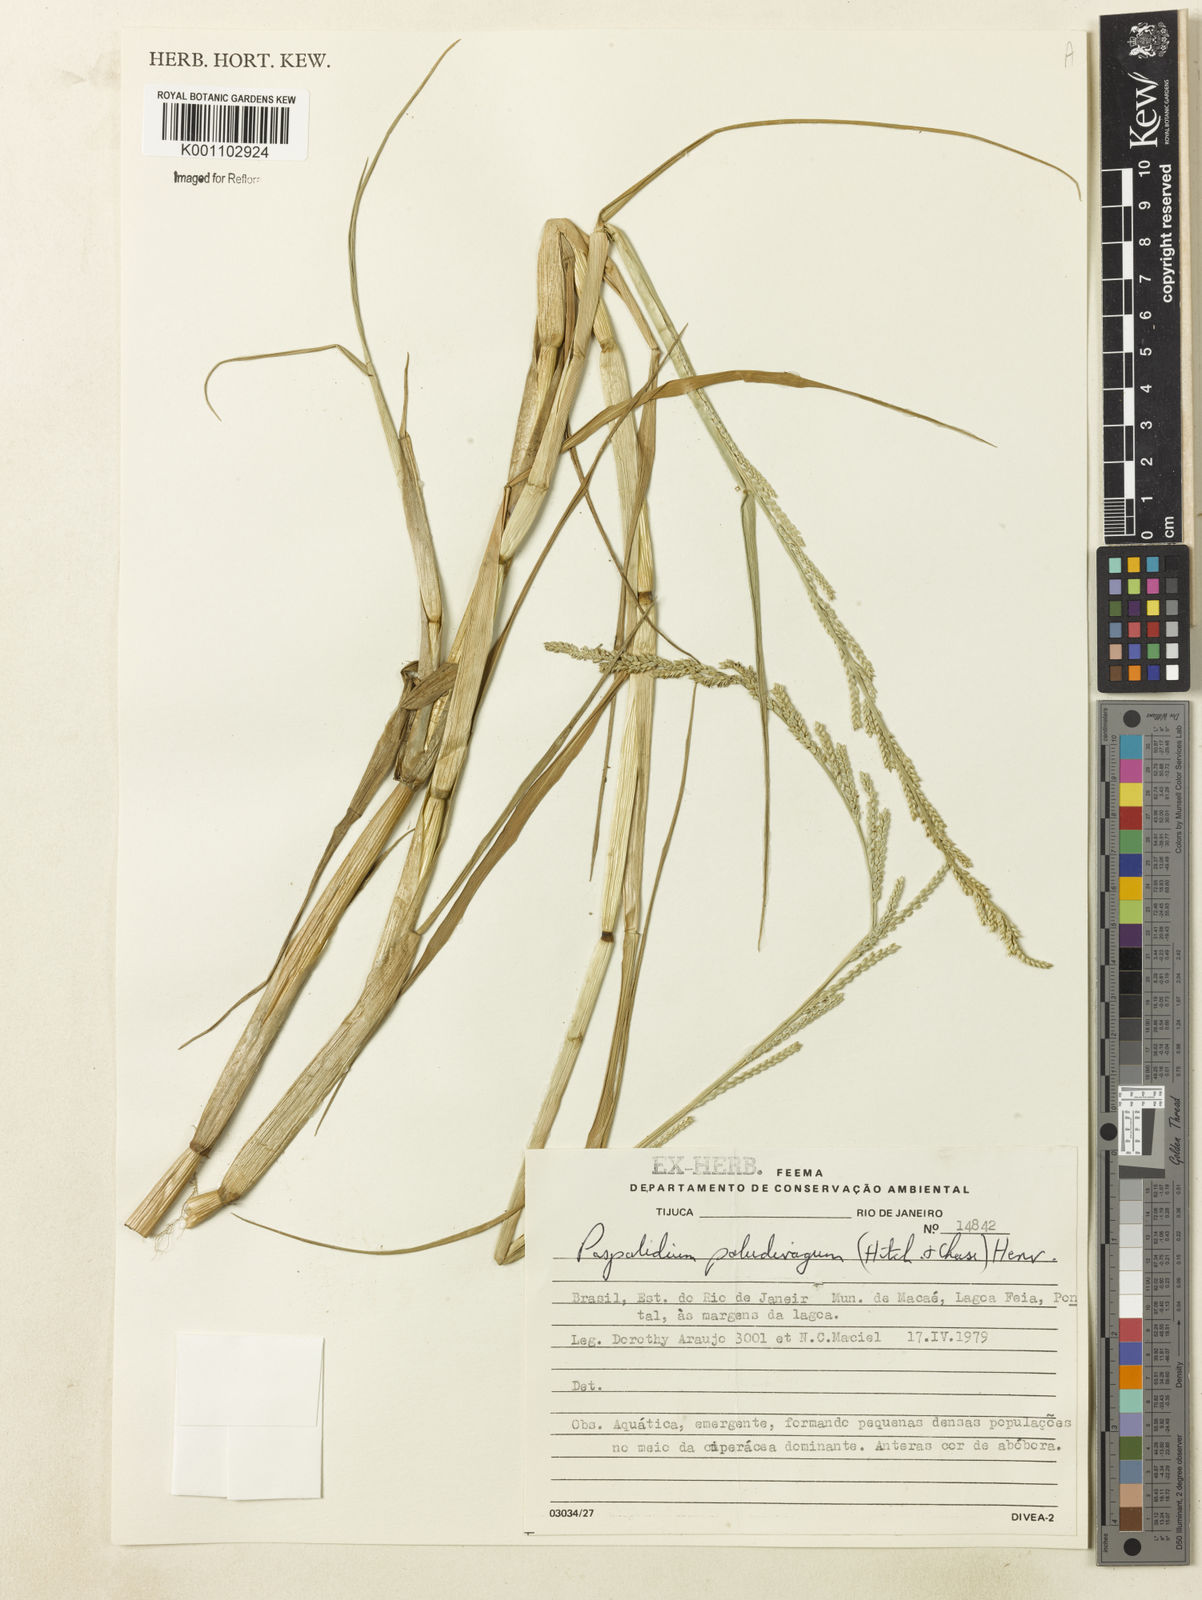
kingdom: Plantae
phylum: Tracheophyta
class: Liliopsida
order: Poales
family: Poaceae
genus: Setaria
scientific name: Setaria geminata
